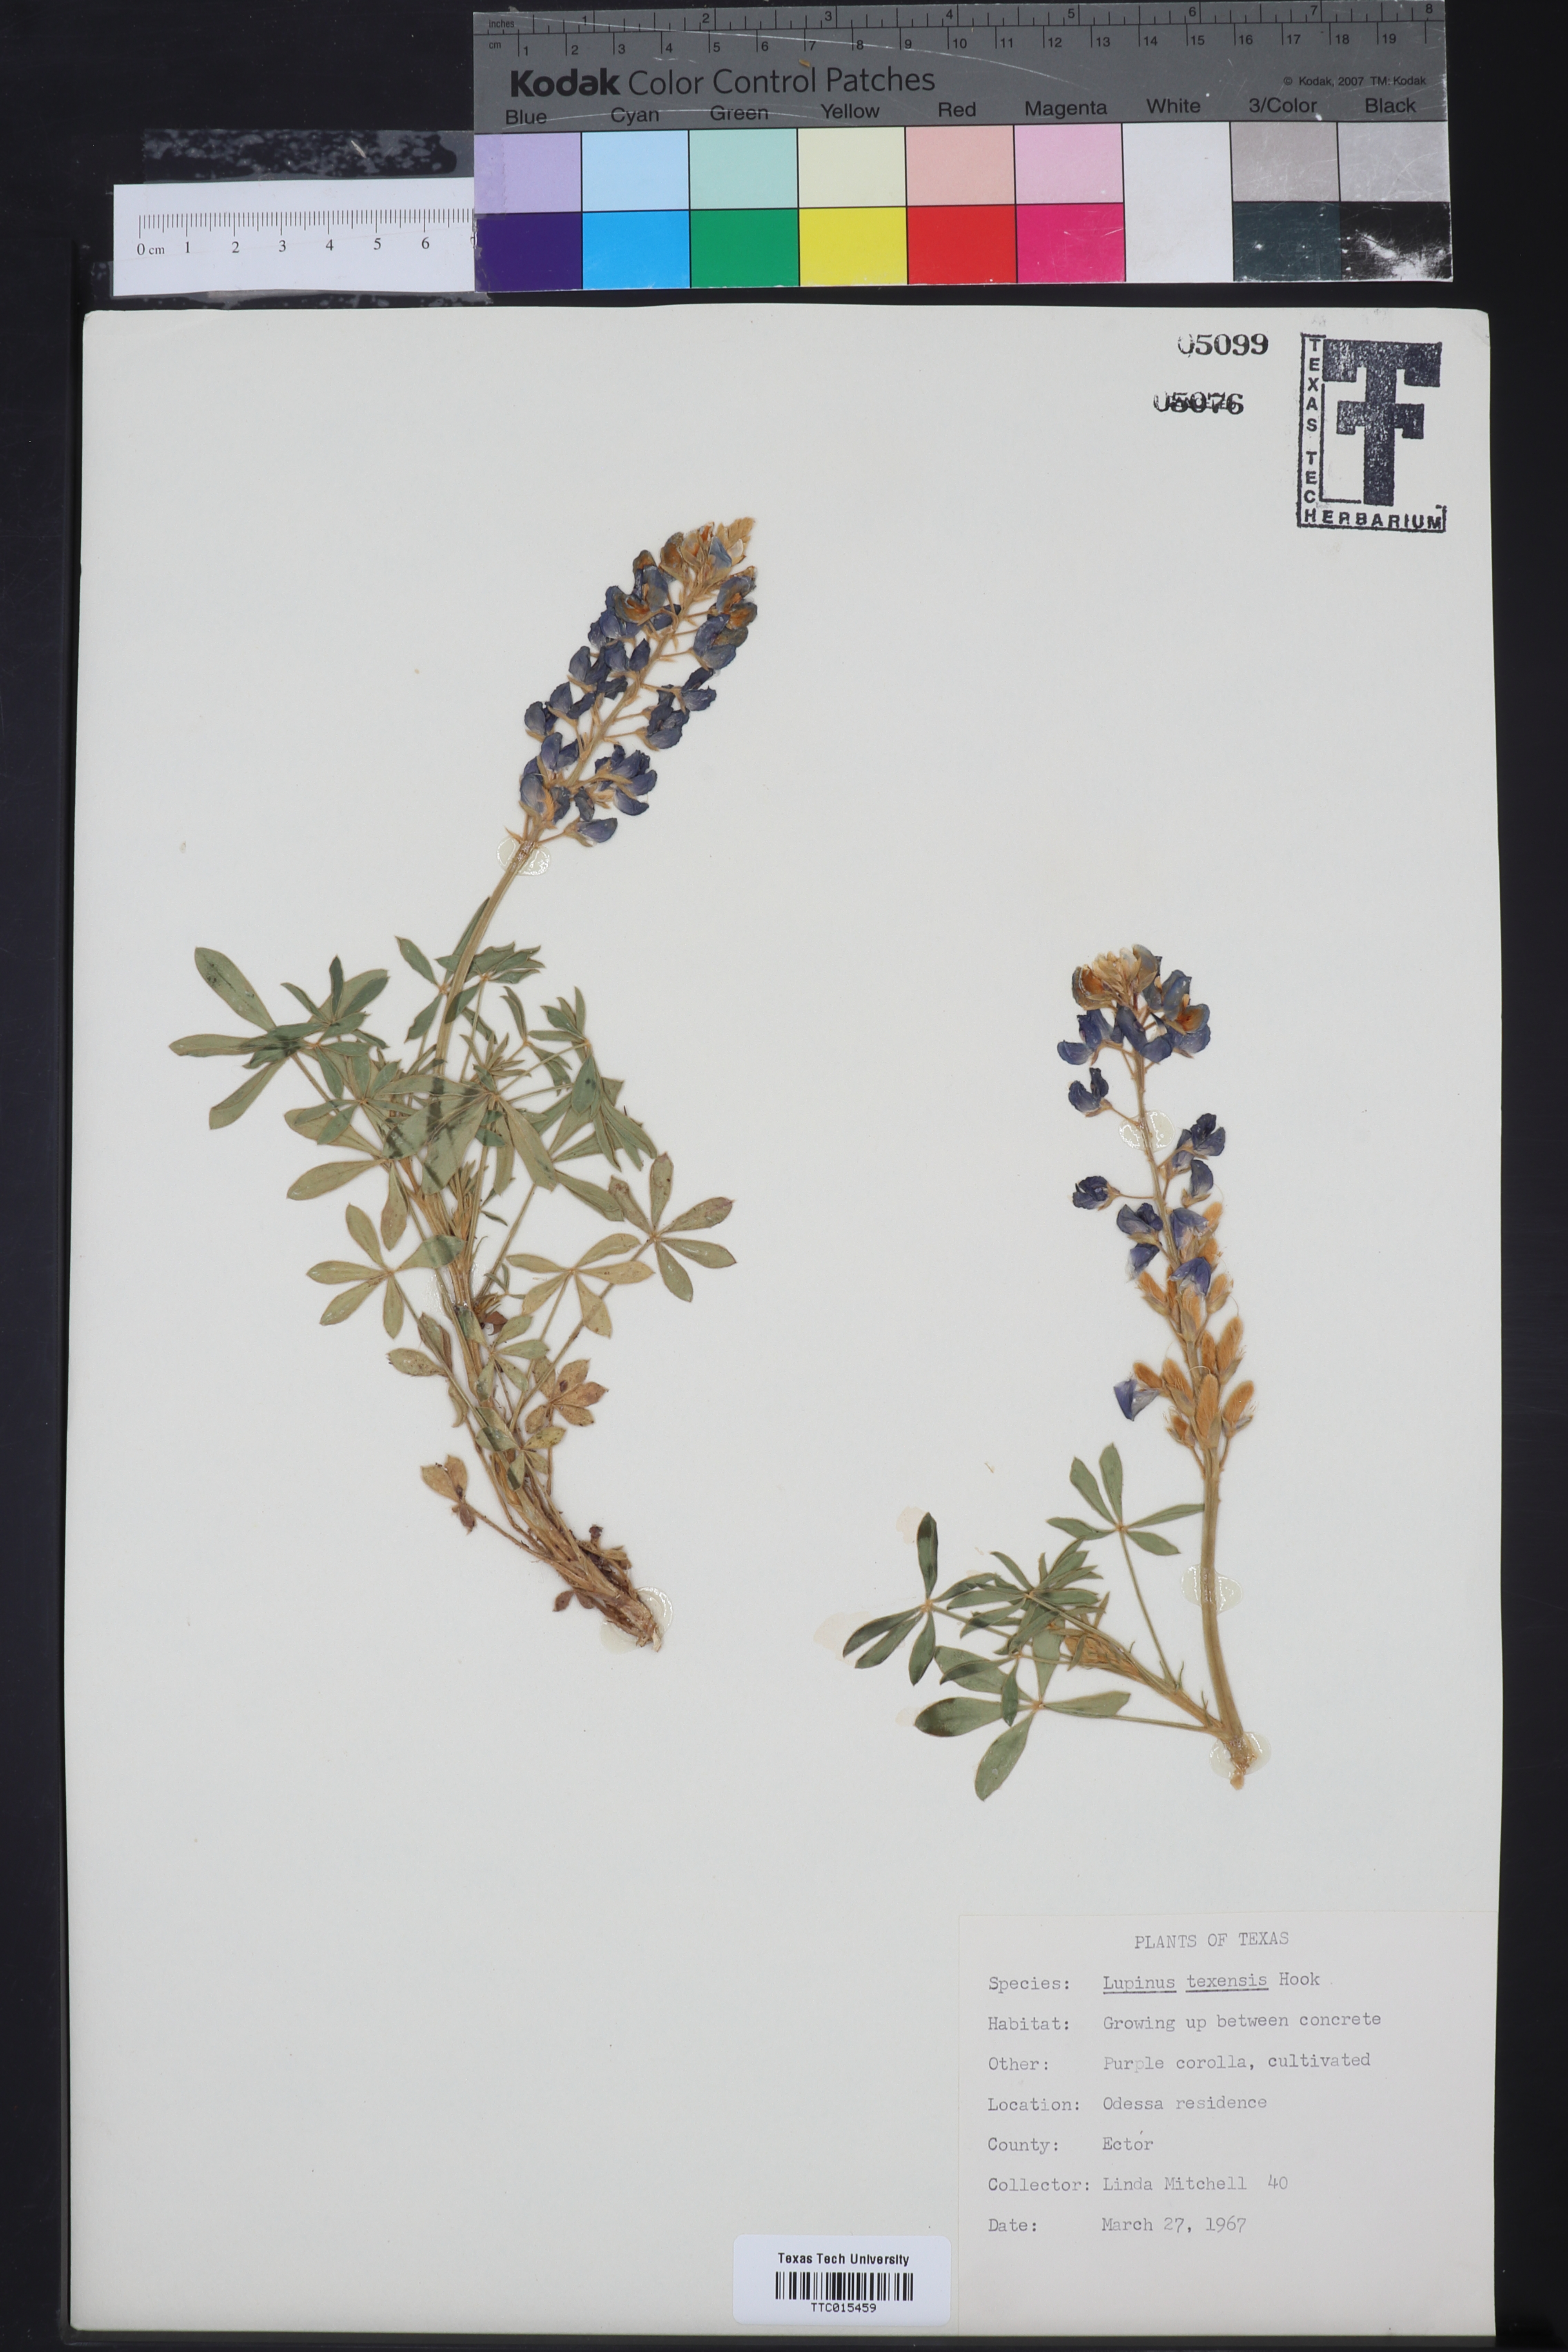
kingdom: Plantae
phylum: Tracheophyta
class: Magnoliopsida
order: Fabales
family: Fabaceae
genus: Lupinus
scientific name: Lupinus texensis
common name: Texas bluebonnet
